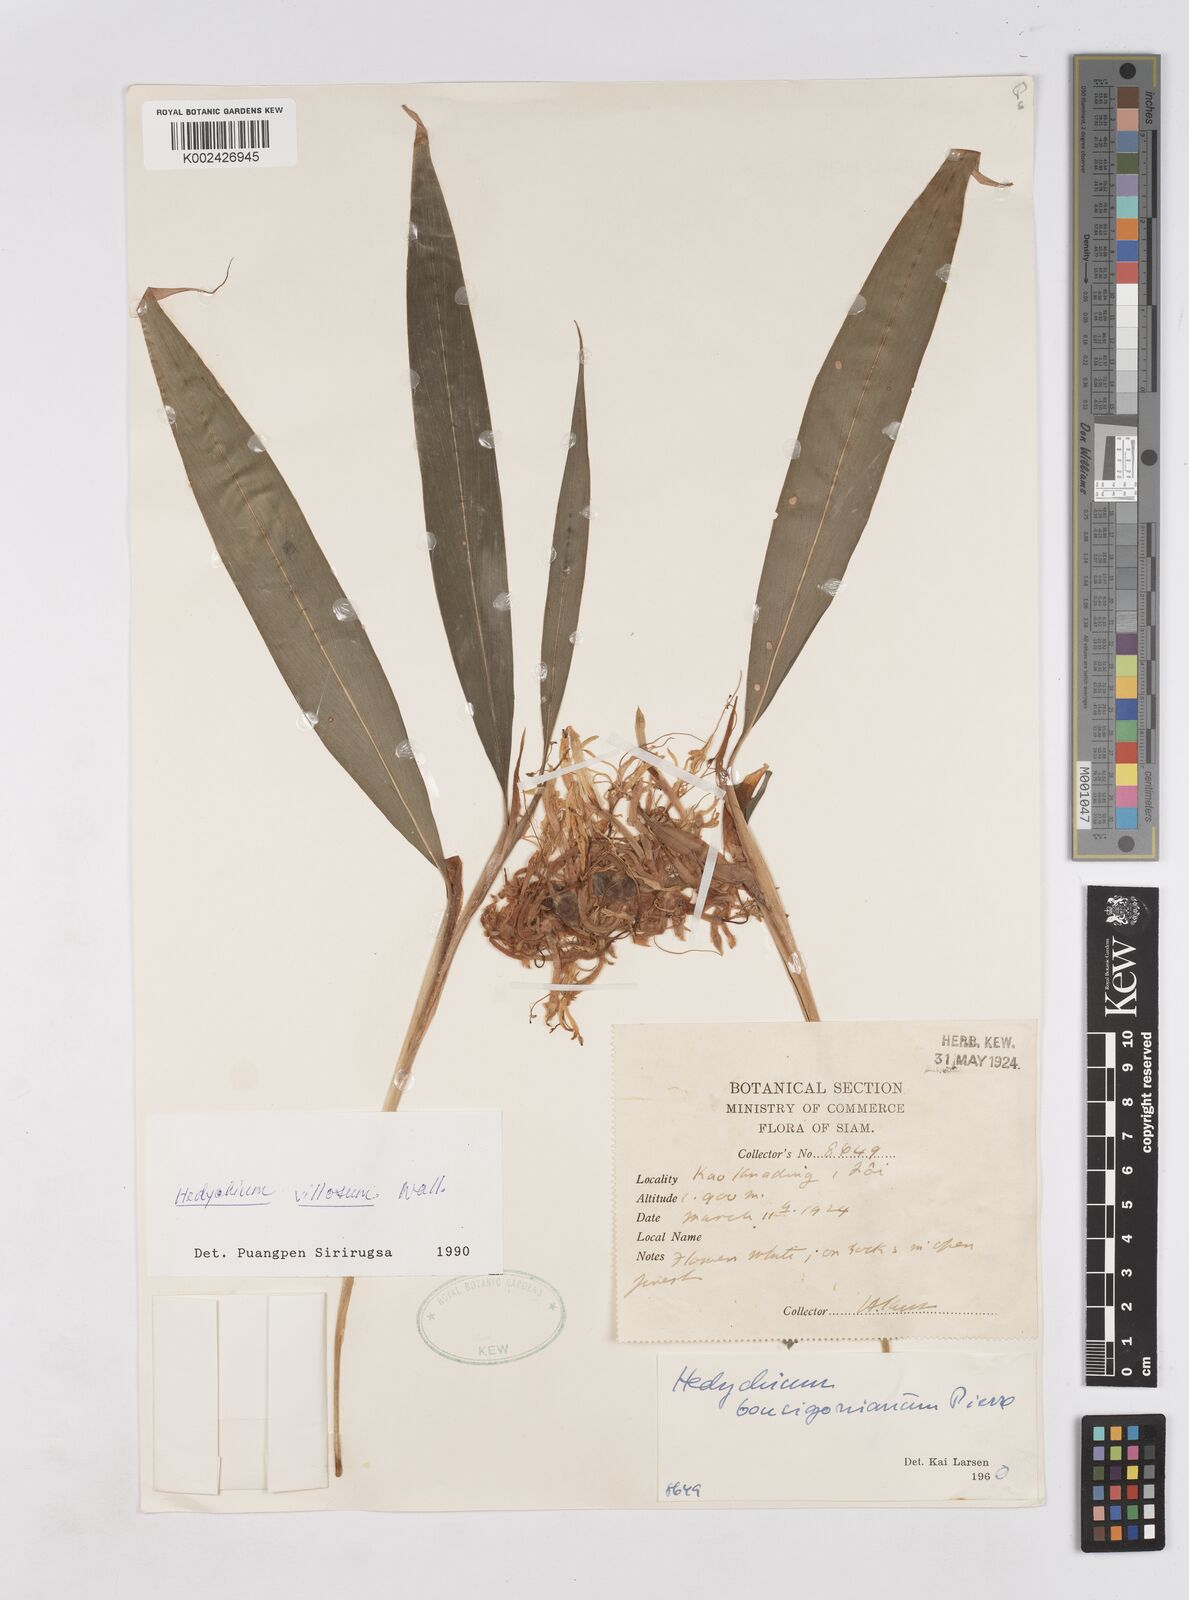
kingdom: Plantae
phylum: Tracheophyta
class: Liliopsida
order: Zingiberales
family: Zingiberaceae
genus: Hedychium
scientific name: Hedychium villosum
